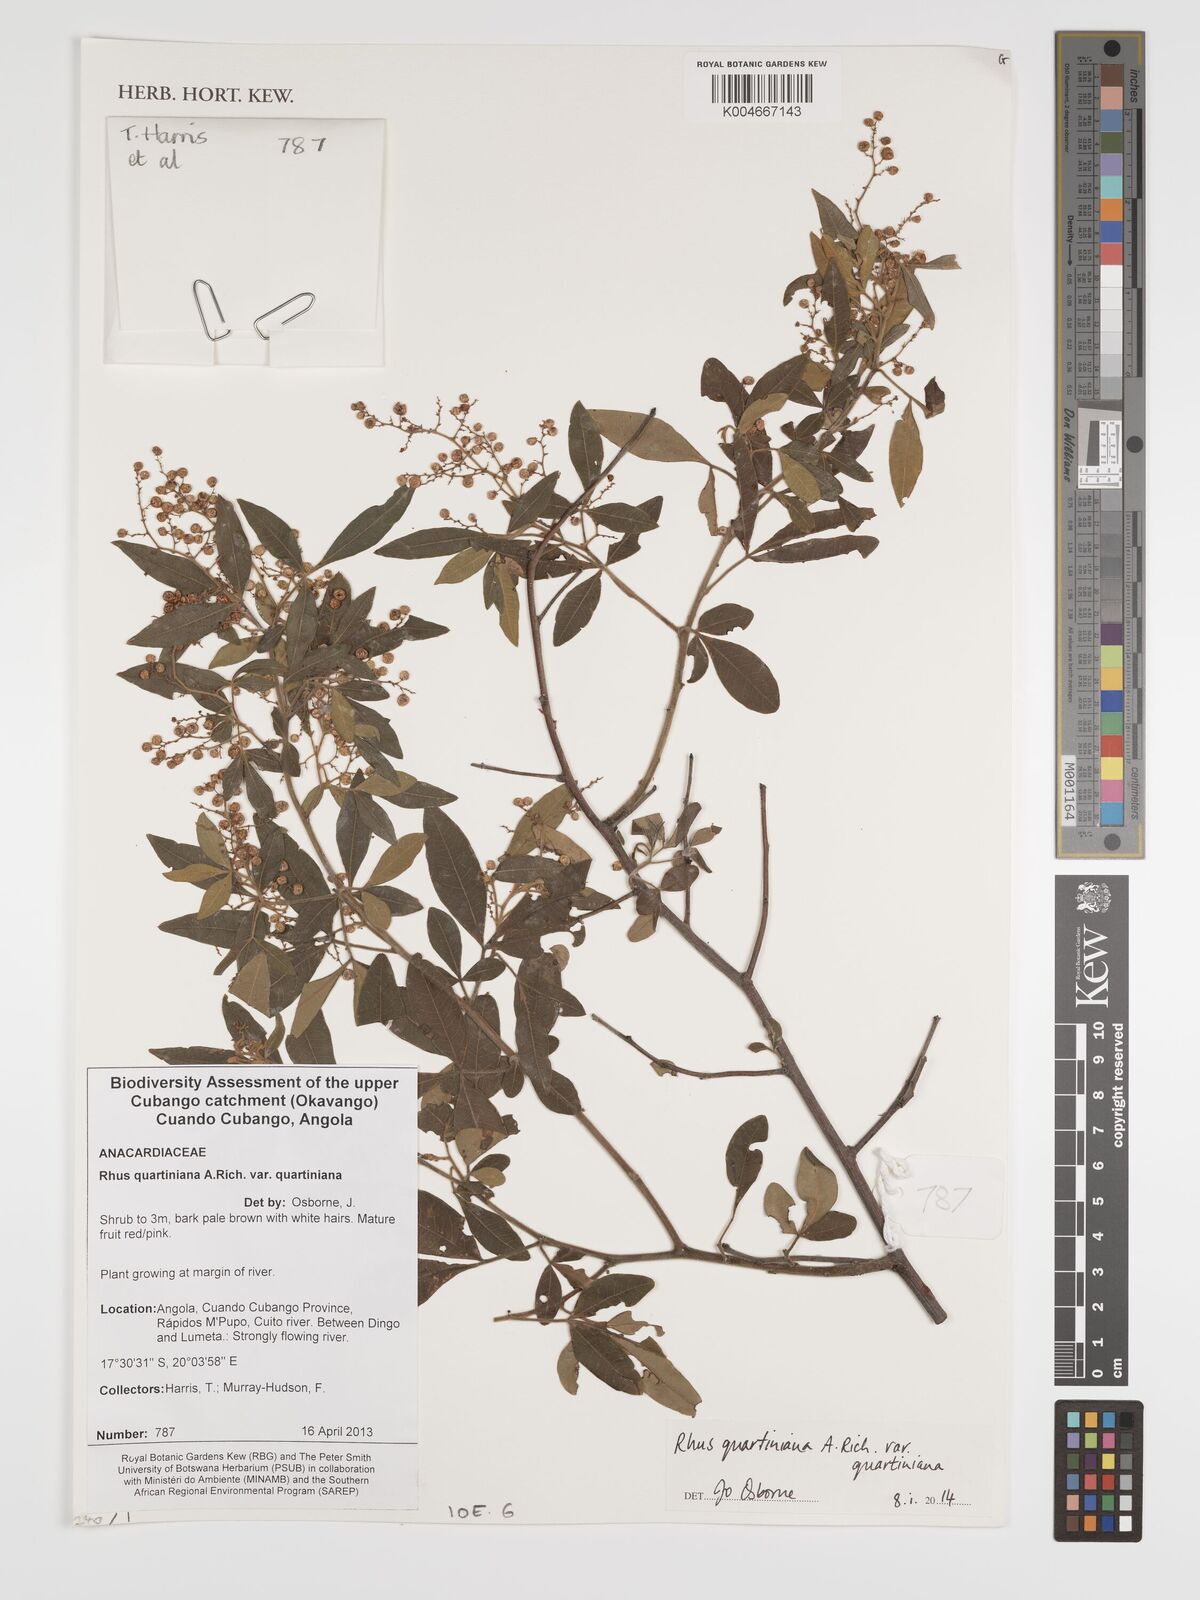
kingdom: Plantae
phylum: Tracheophyta
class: Magnoliopsida
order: Sapindales
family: Anacardiaceae
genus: Searsia
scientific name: Searsia quartiniana
